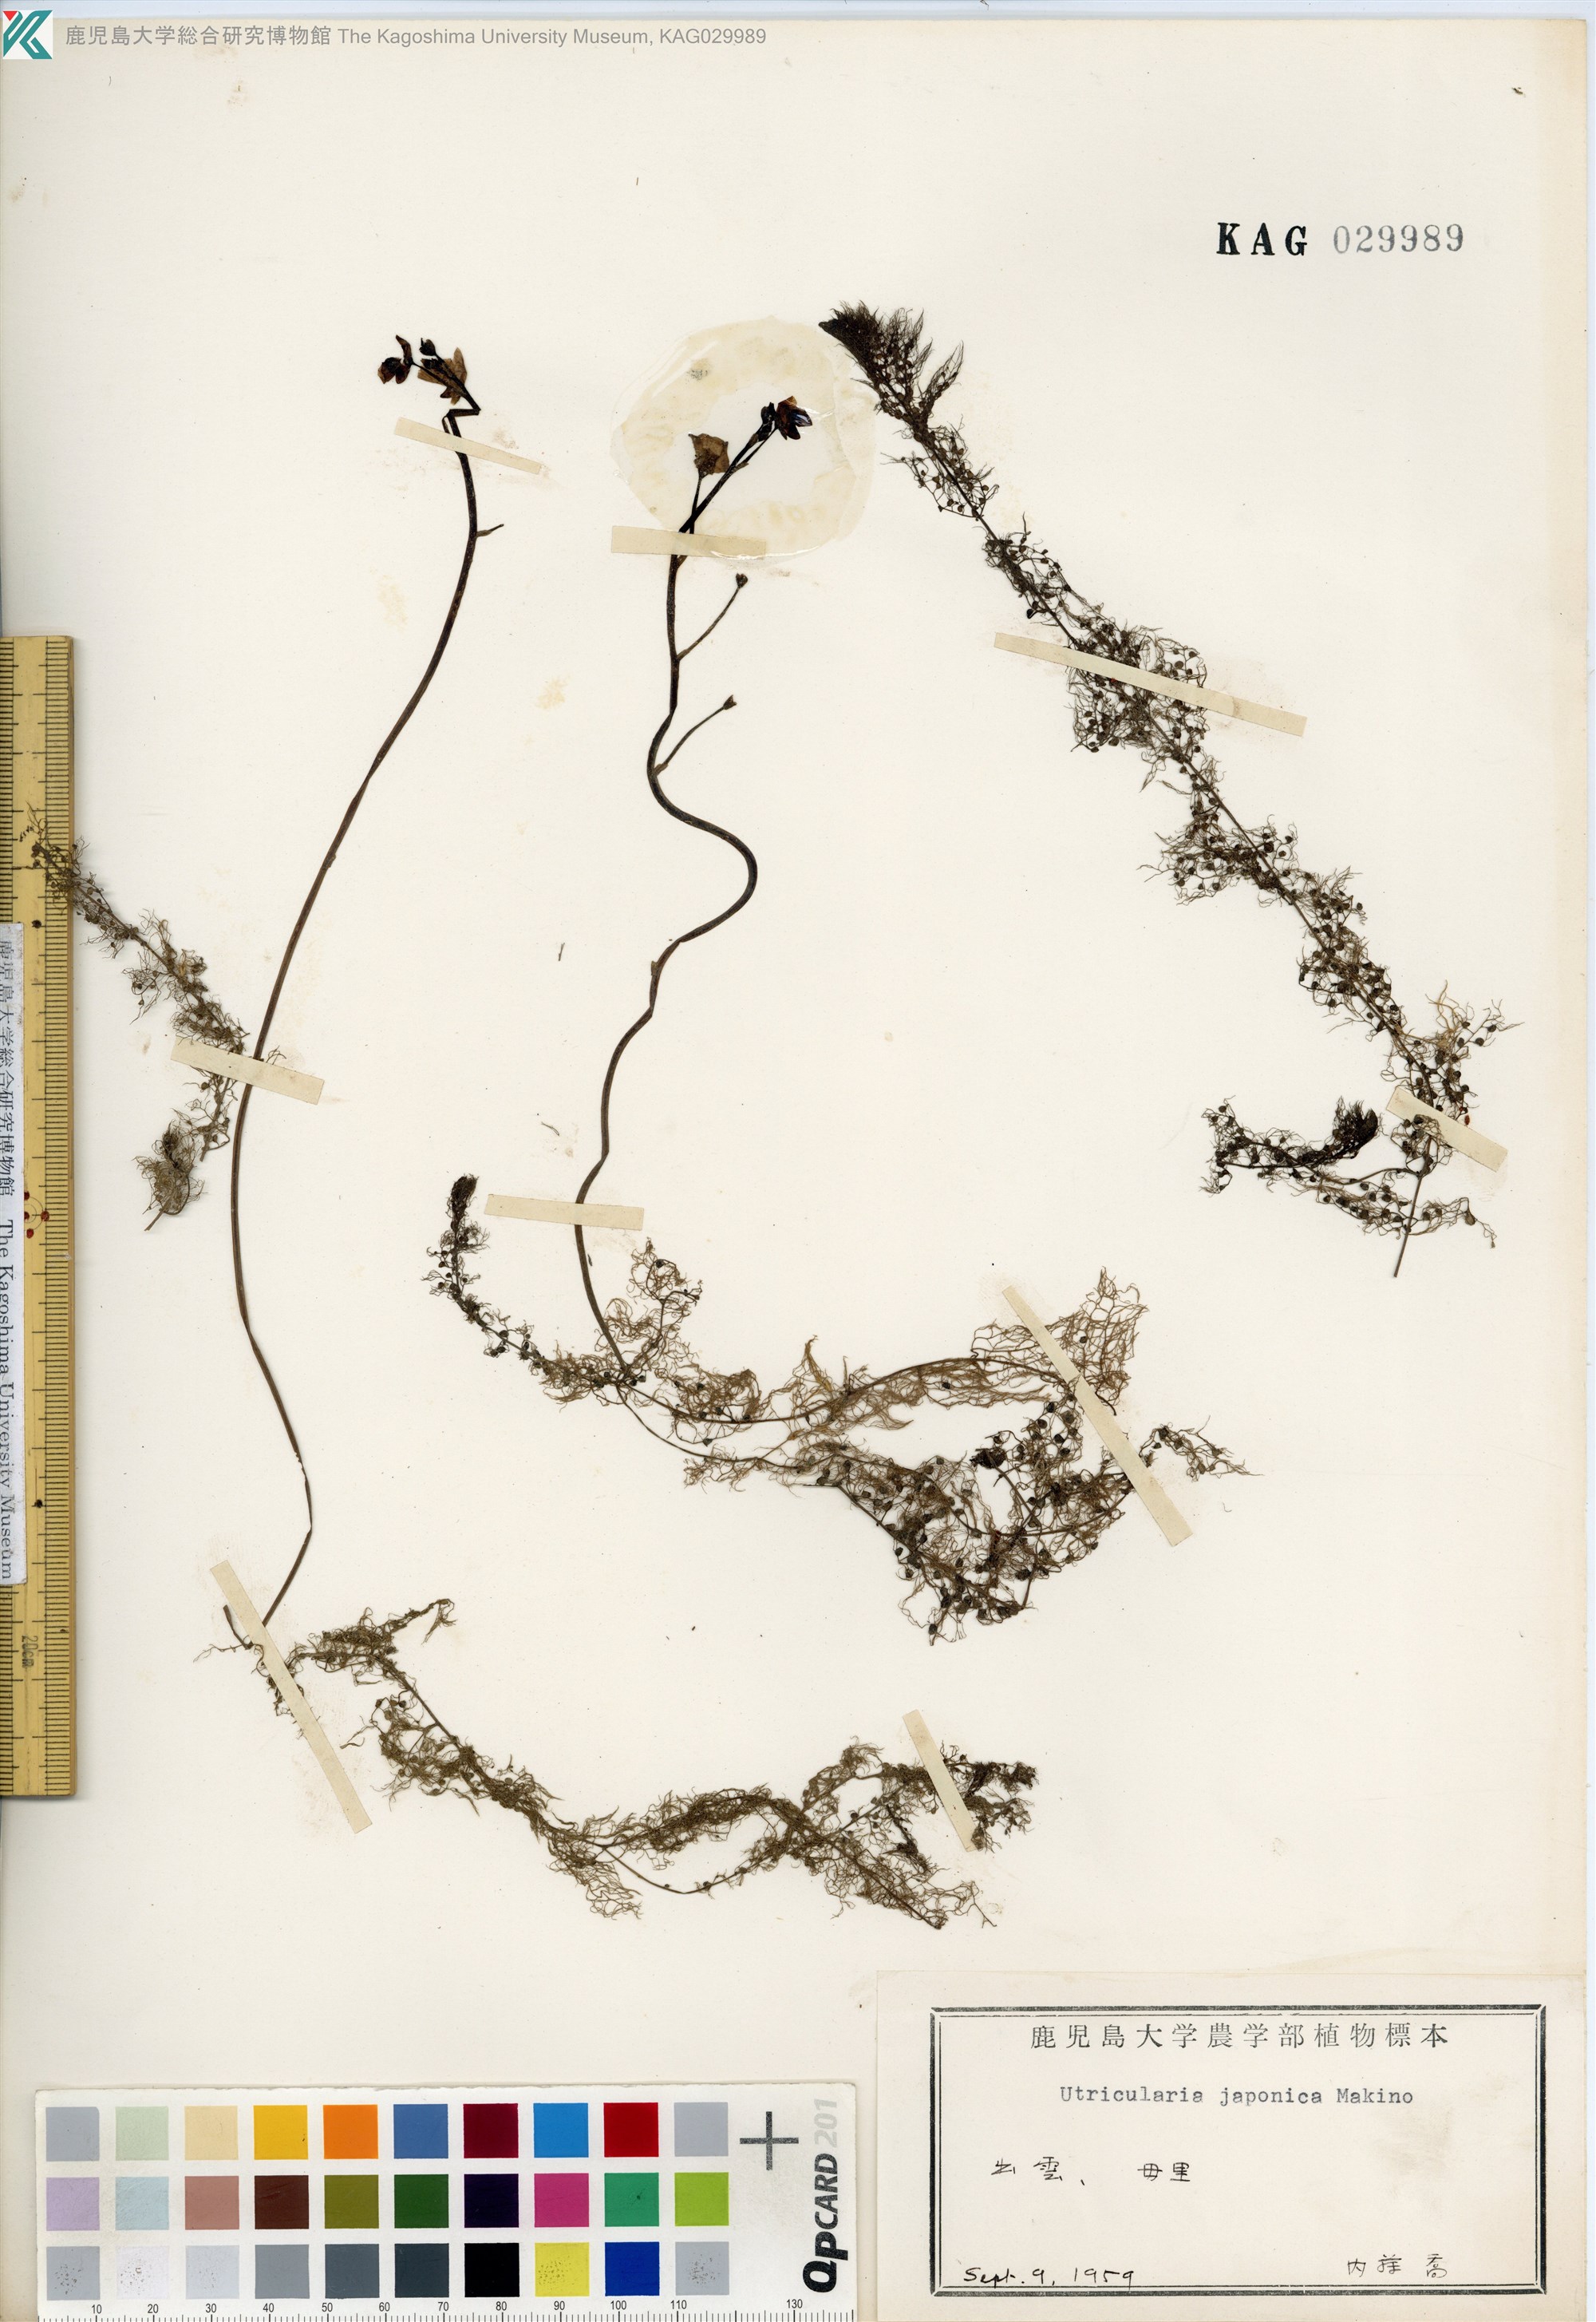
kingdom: Plantae
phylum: Tracheophyta
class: Magnoliopsida
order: Lamiales
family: Lentibulariaceae
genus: Utricularia
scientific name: Utricularia japonica
